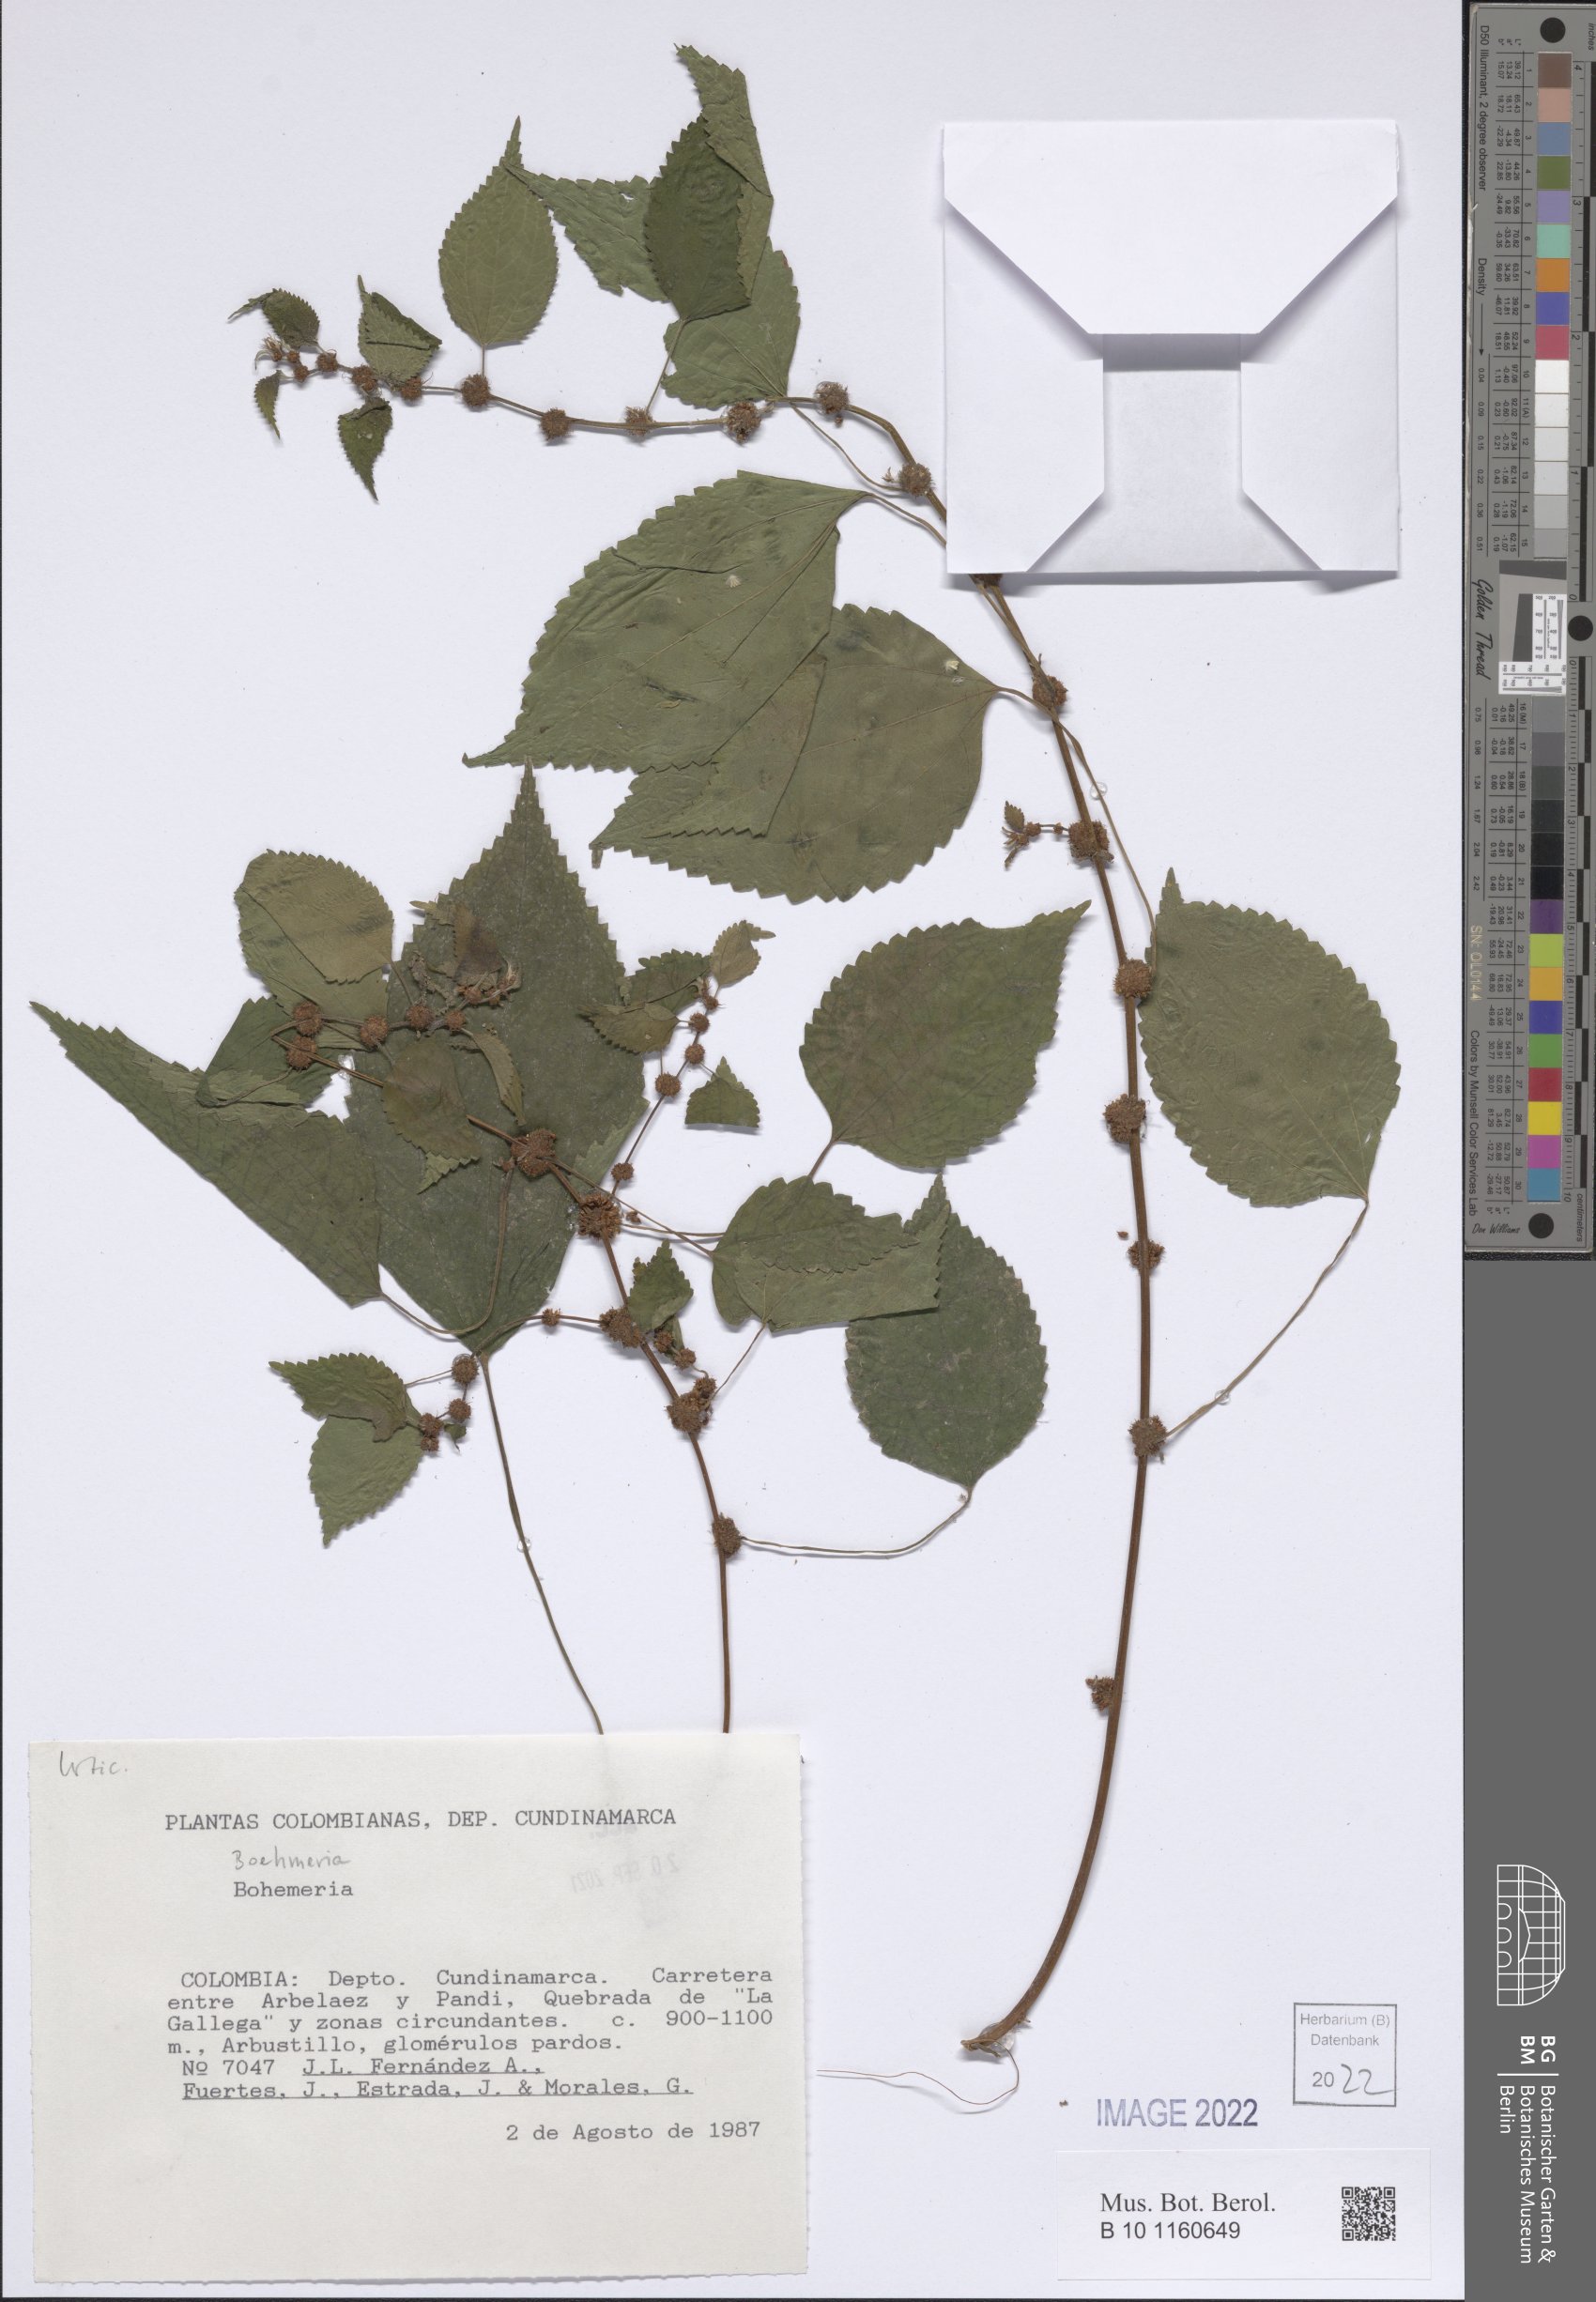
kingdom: Plantae
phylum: Tracheophyta
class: Magnoliopsida
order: Rosales
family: Urticaceae
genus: Boehmeria
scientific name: Boehmeria
